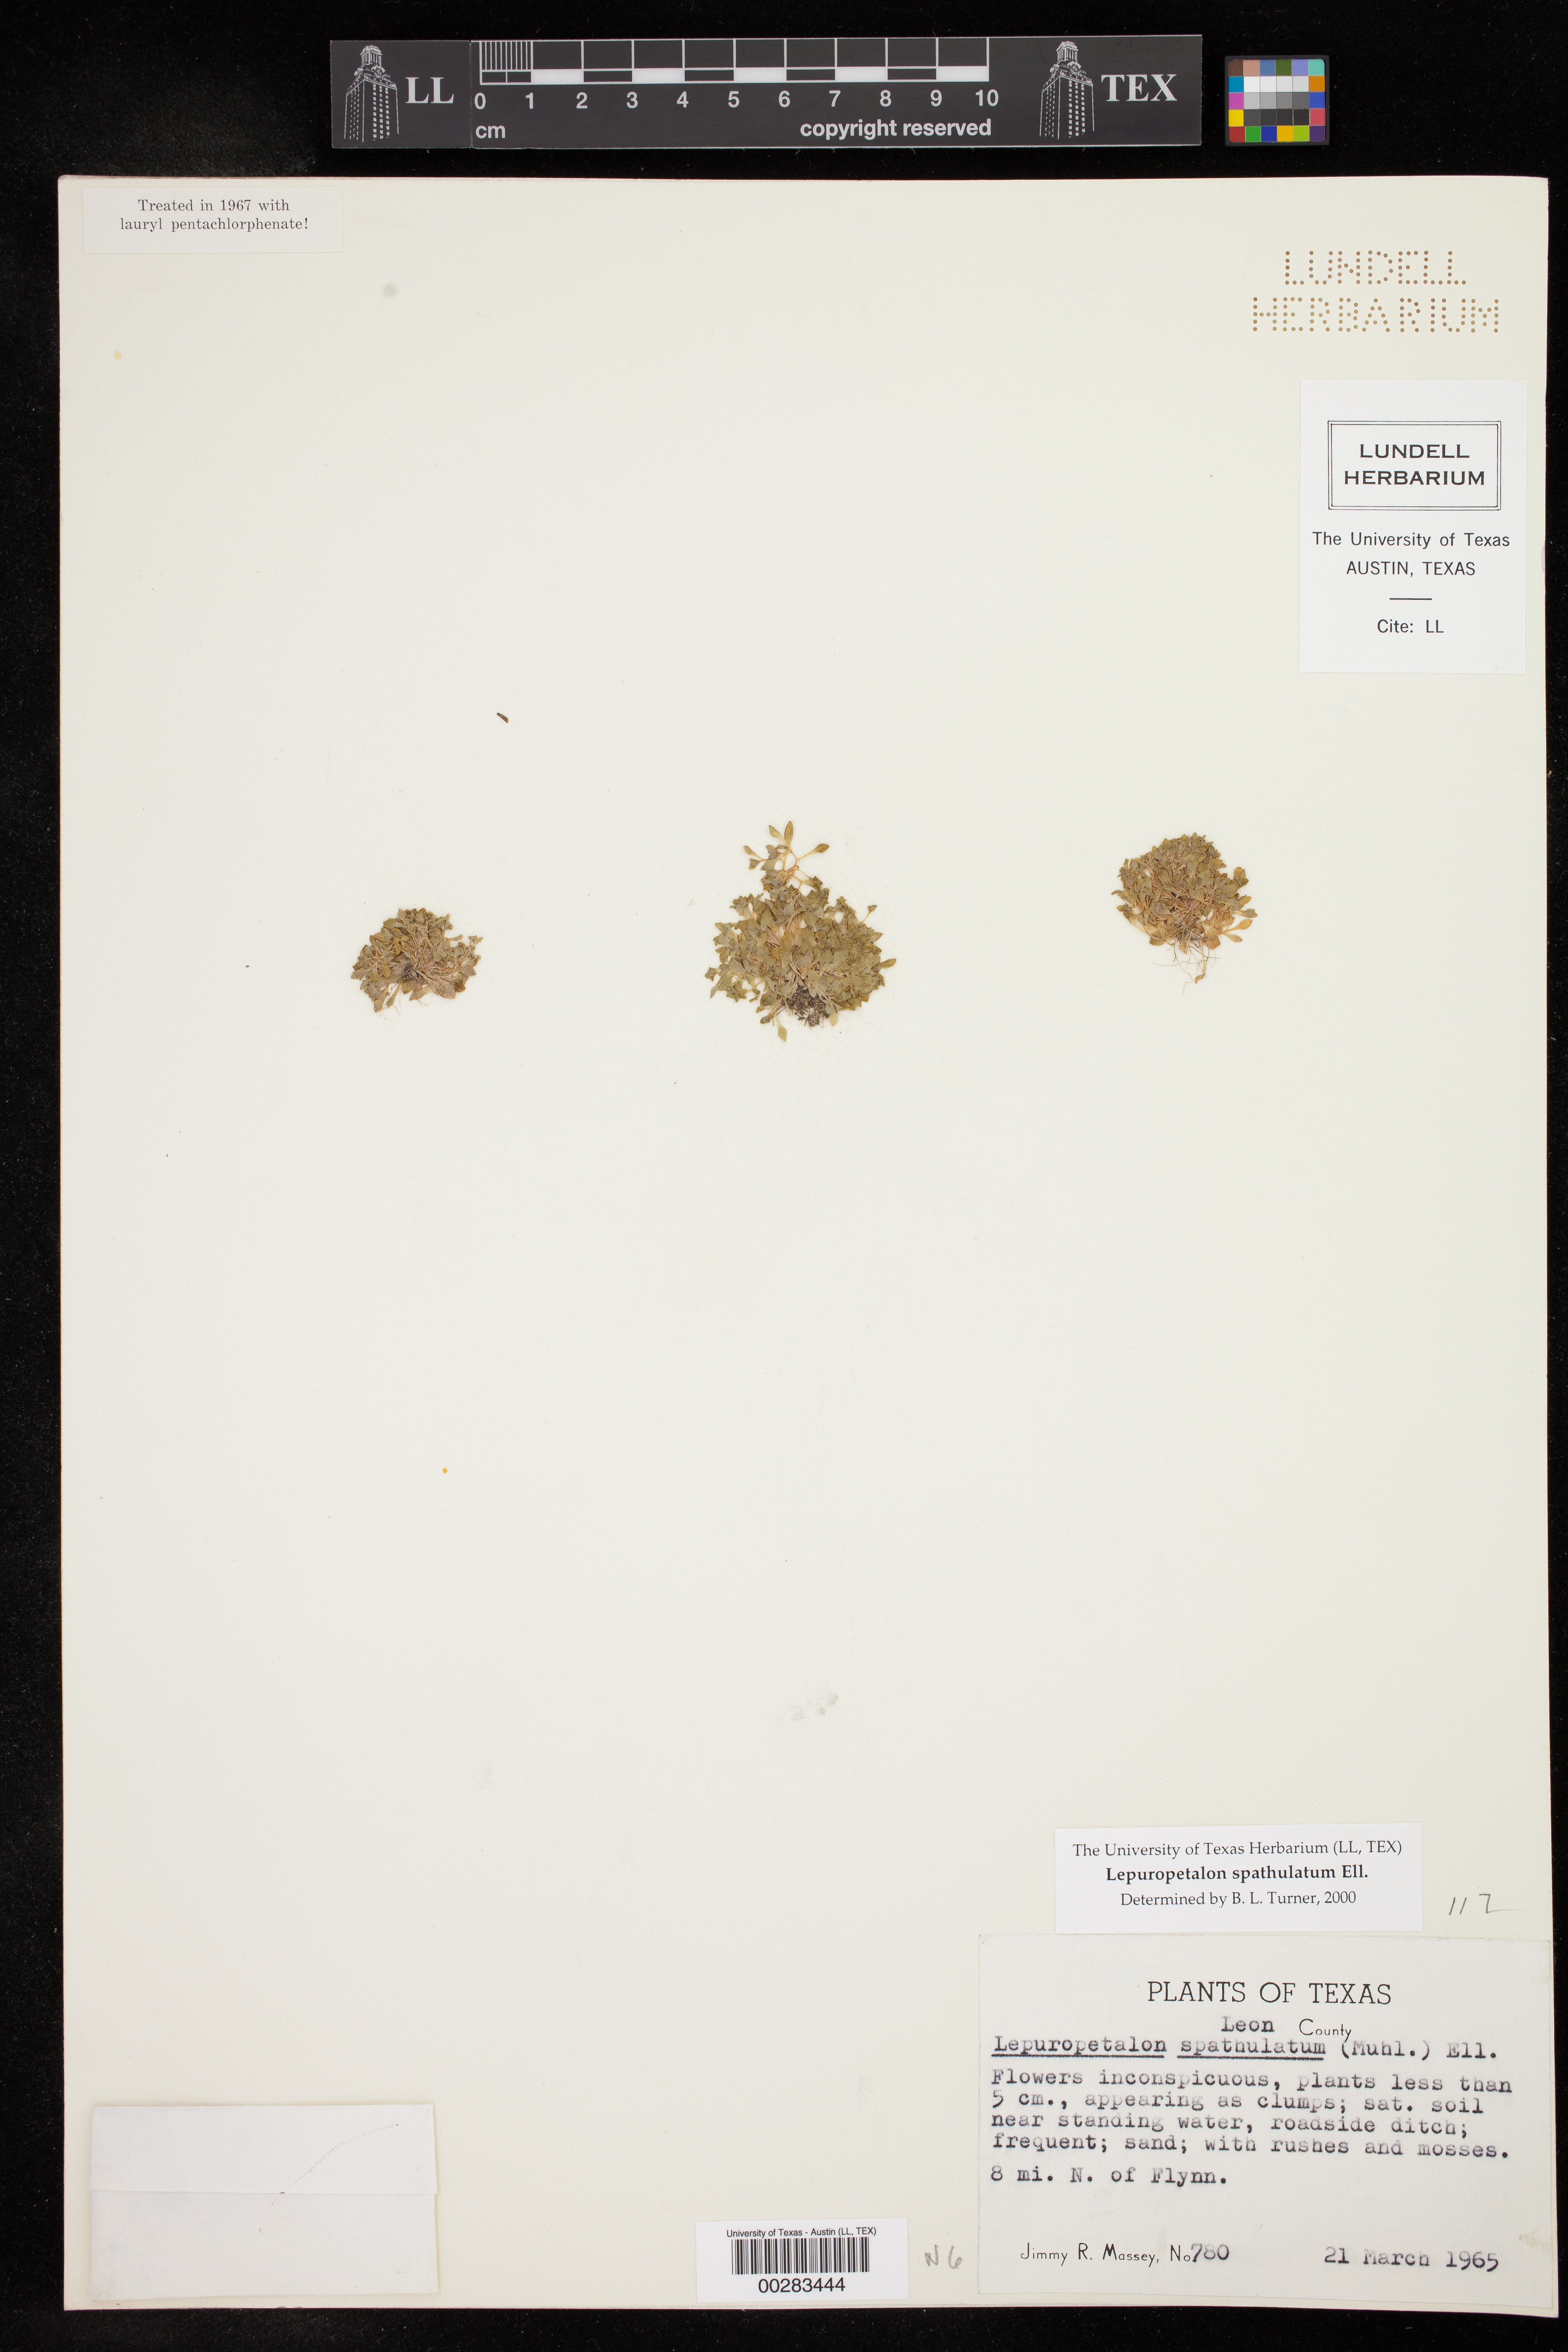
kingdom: Plantae
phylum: Tracheophyta
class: Magnoliopsida
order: Celastrales
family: Parnassiaceae
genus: Lepuropetalon
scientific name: Lepuropetalon spathulatum
